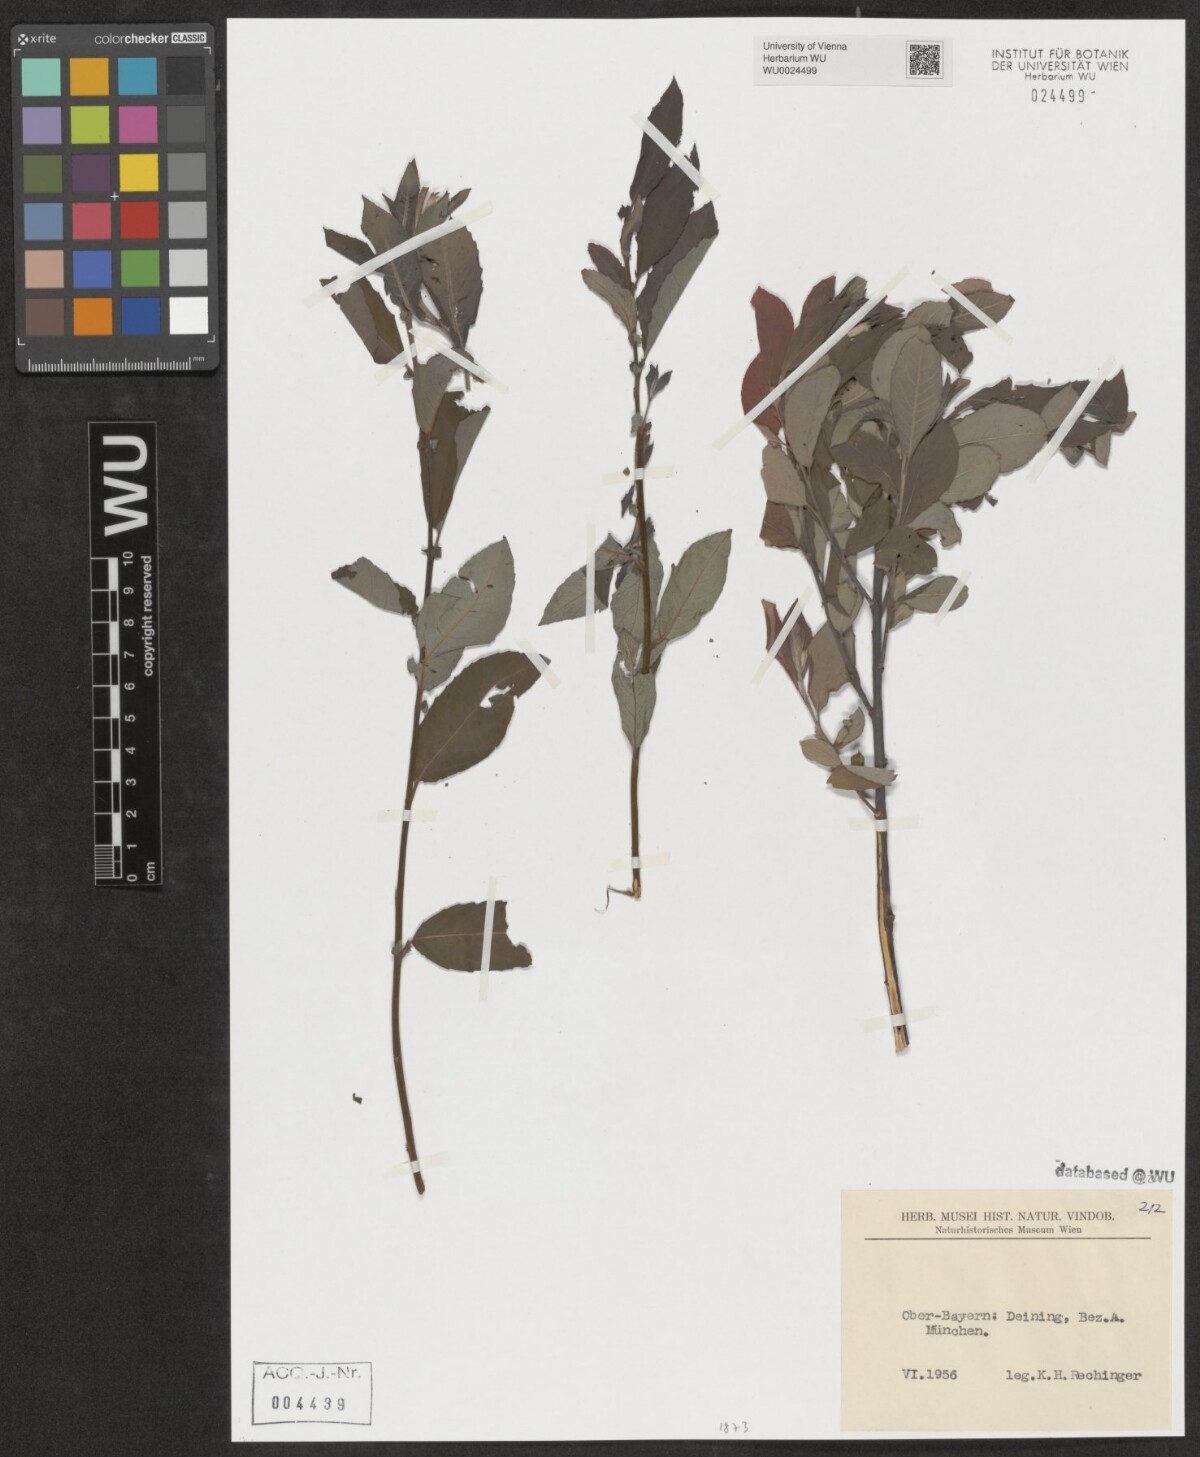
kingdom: Plantae
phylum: Tracheophyta
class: Magnoliopsida
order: Malpighiales
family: Salicaceae
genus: Salix
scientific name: Salix
